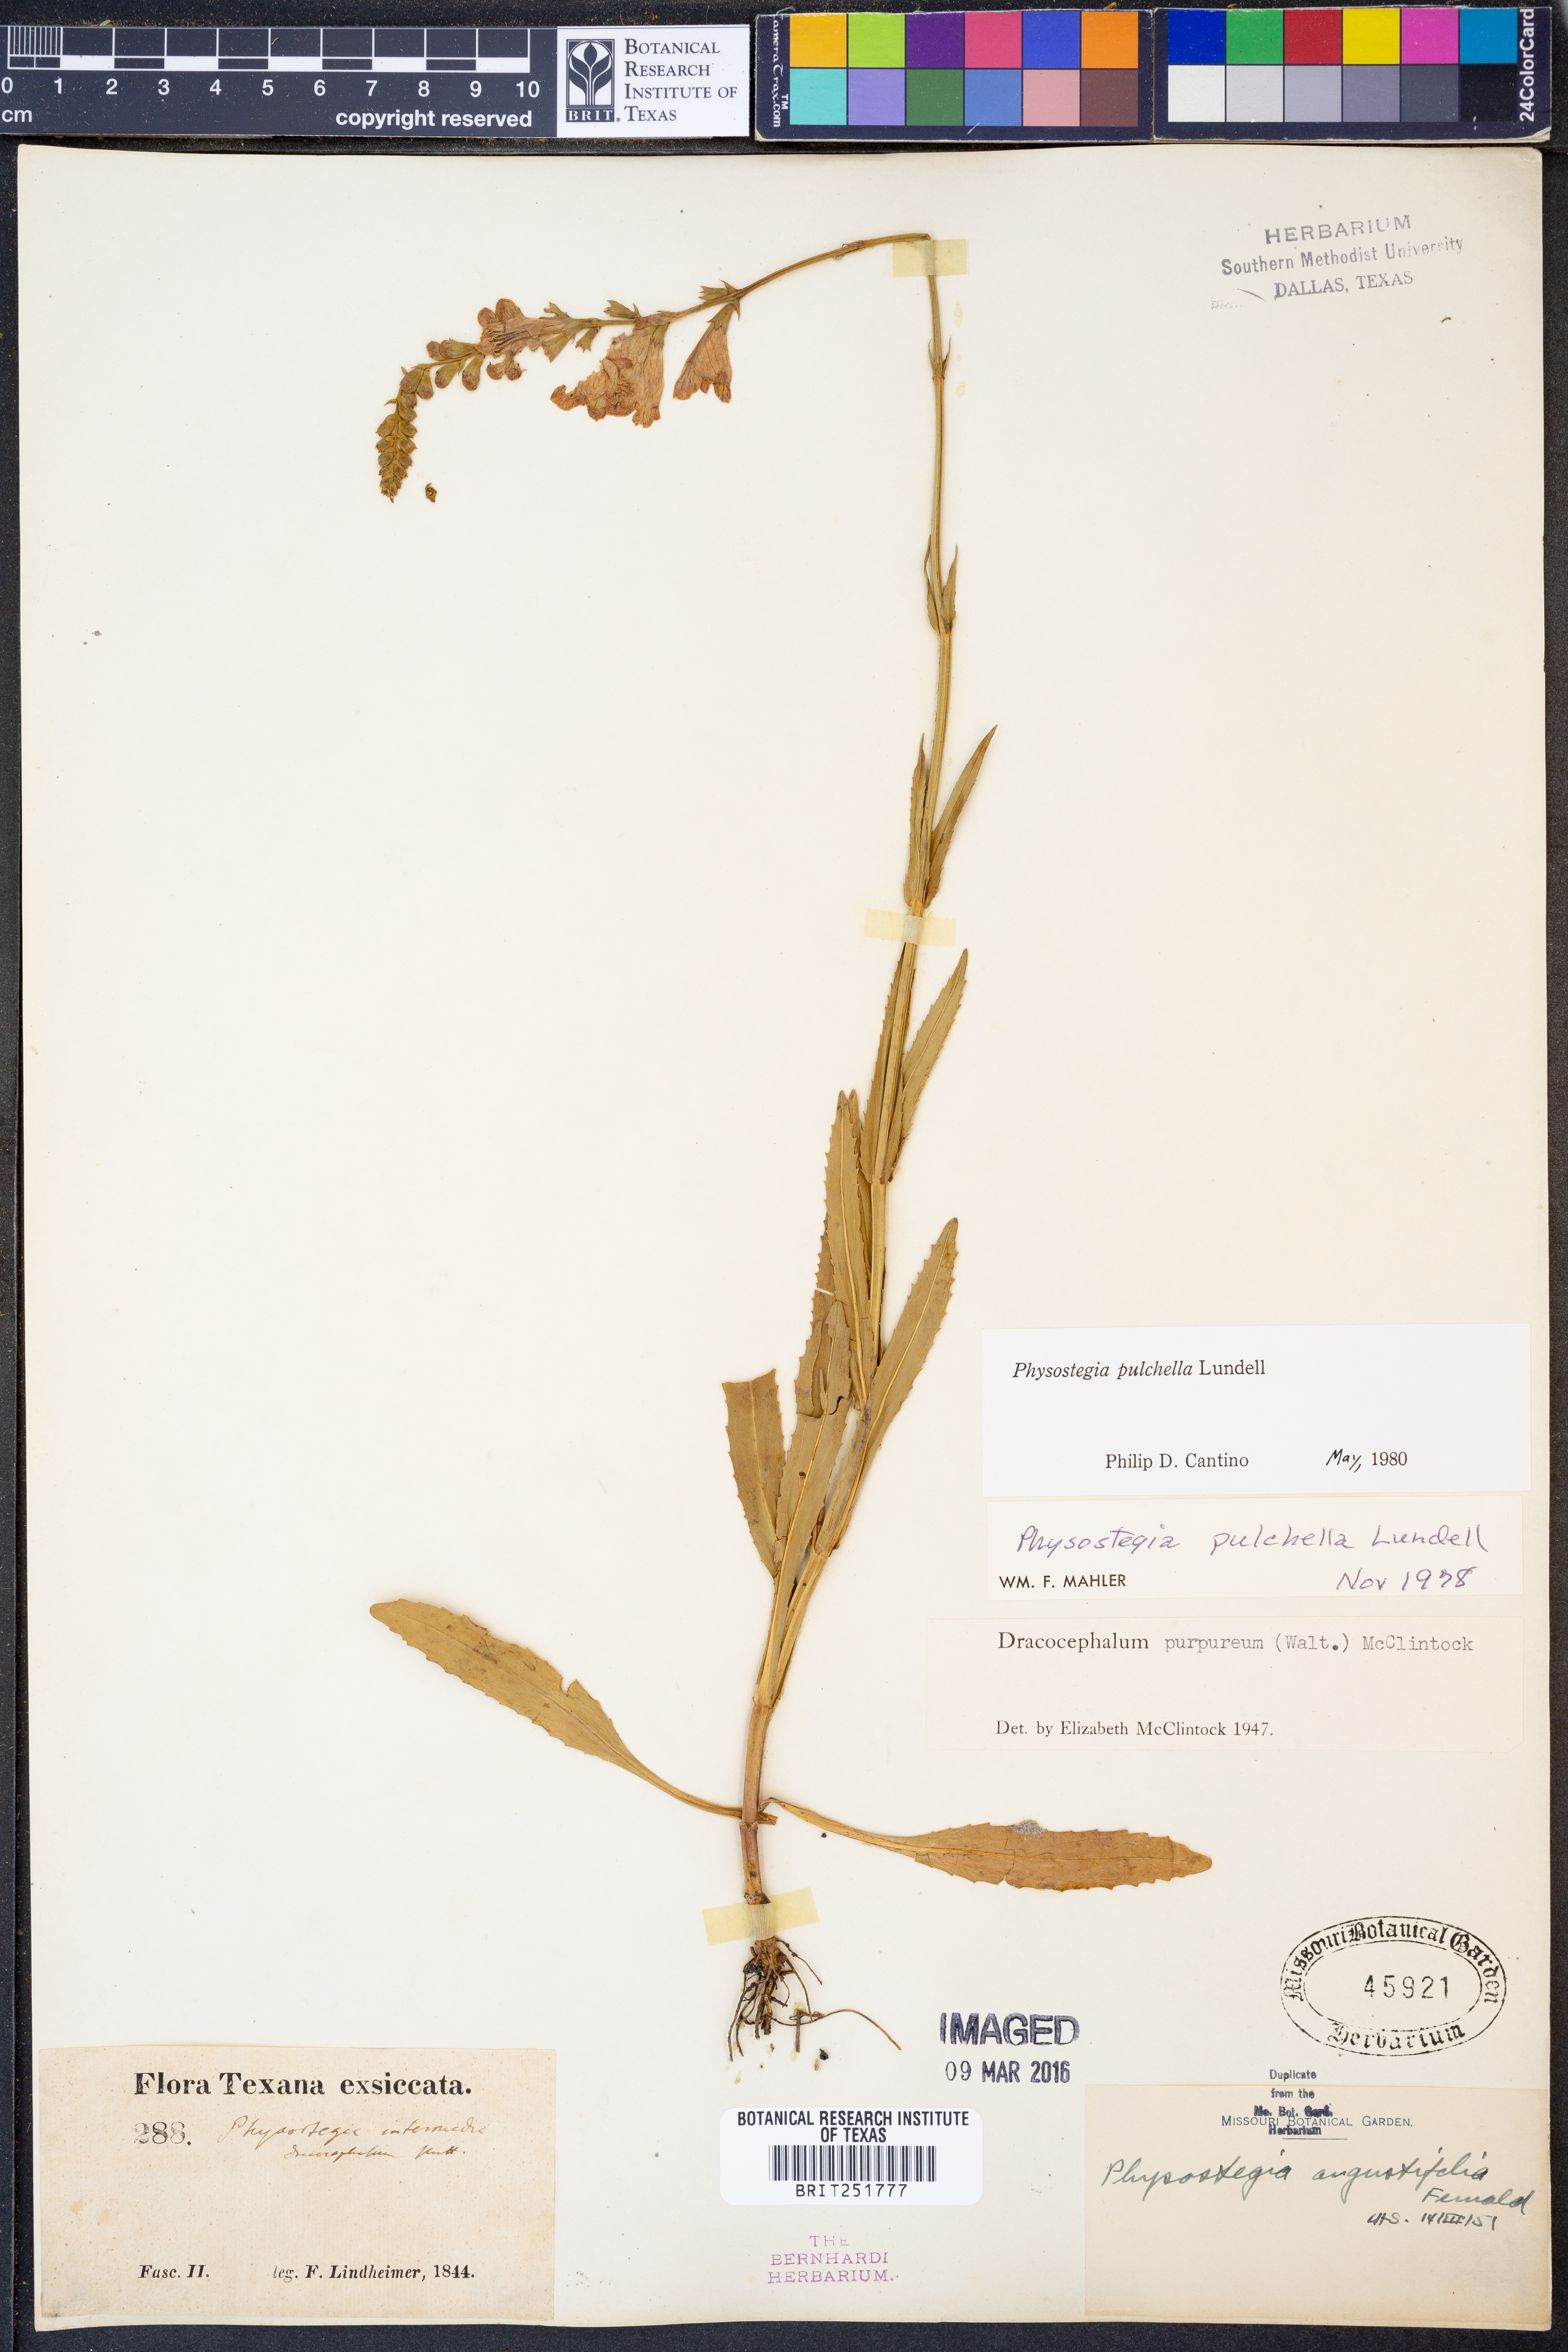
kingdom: Plantae
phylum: Tracheophyta
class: Magnoliopsida
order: Lamiales
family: Lamiaceae
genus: Physostegia
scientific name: Physostegia pulchella
